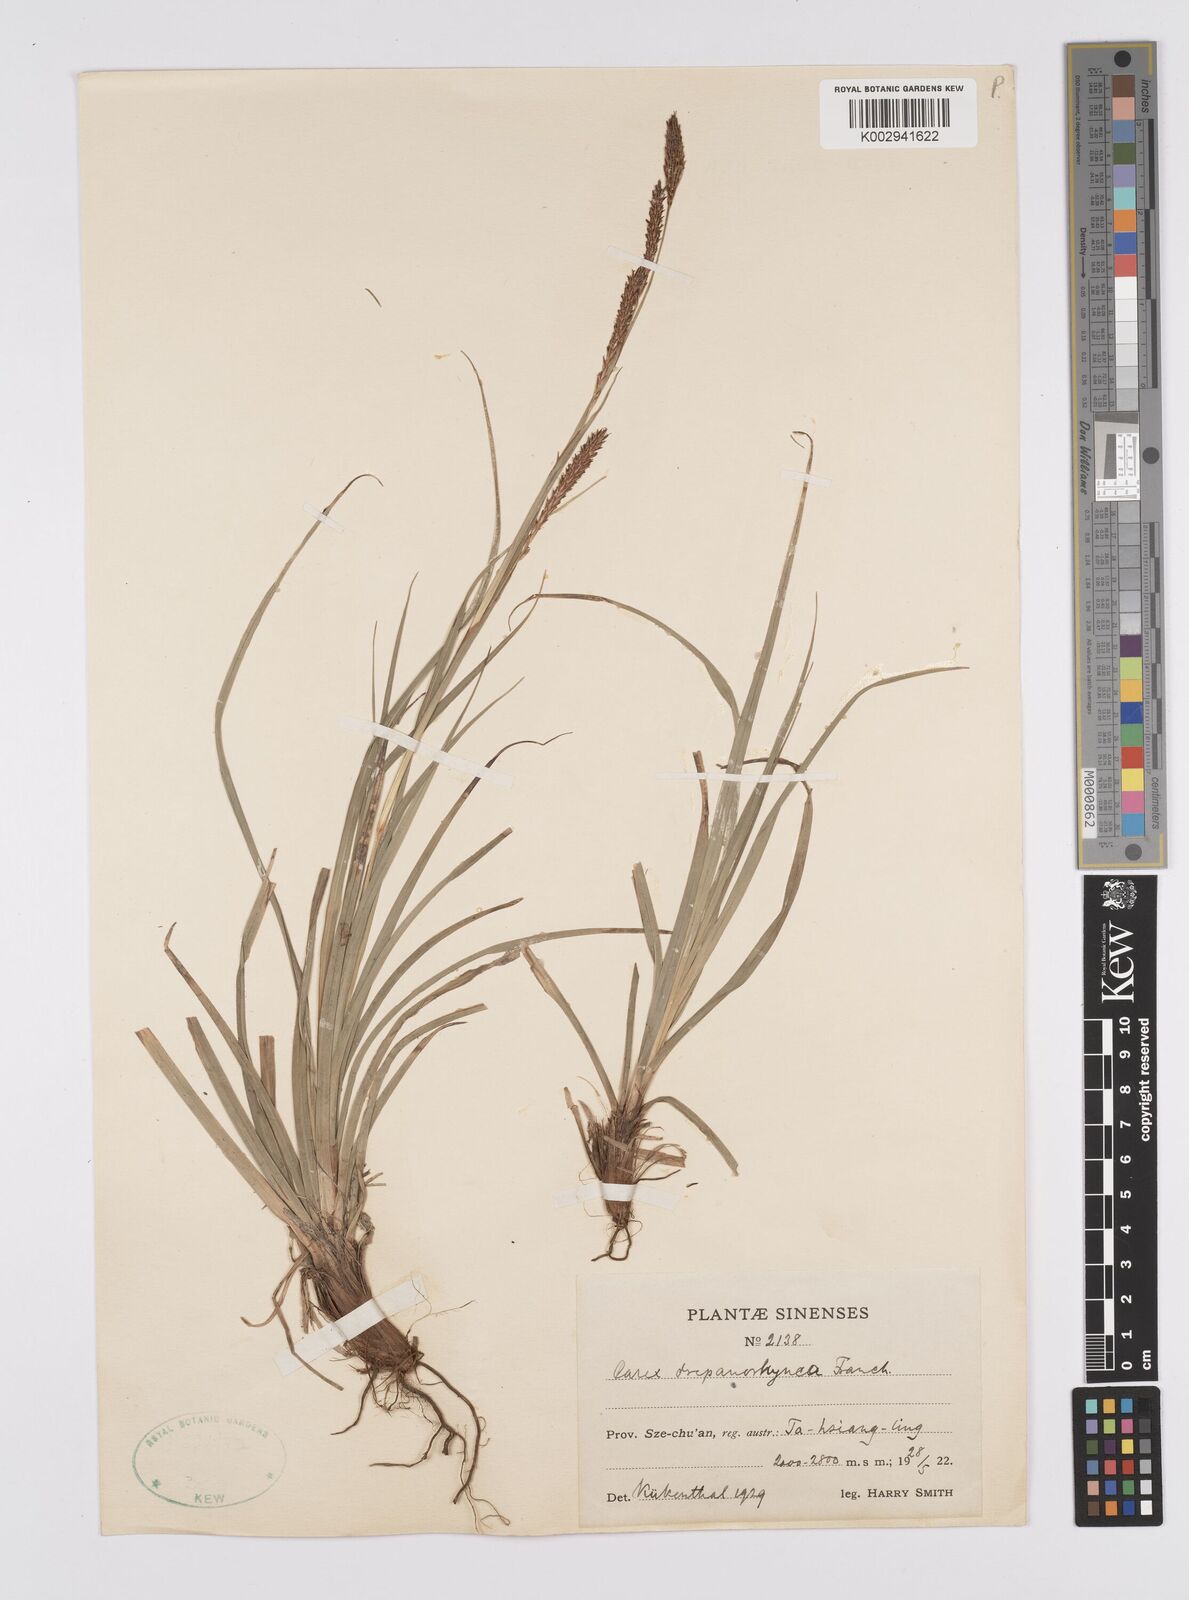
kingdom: Plantae
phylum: Tracheophyta
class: Liliopsida
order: Poales
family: Cyperaceae
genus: Carex
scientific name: Carex drepanorhyncha
